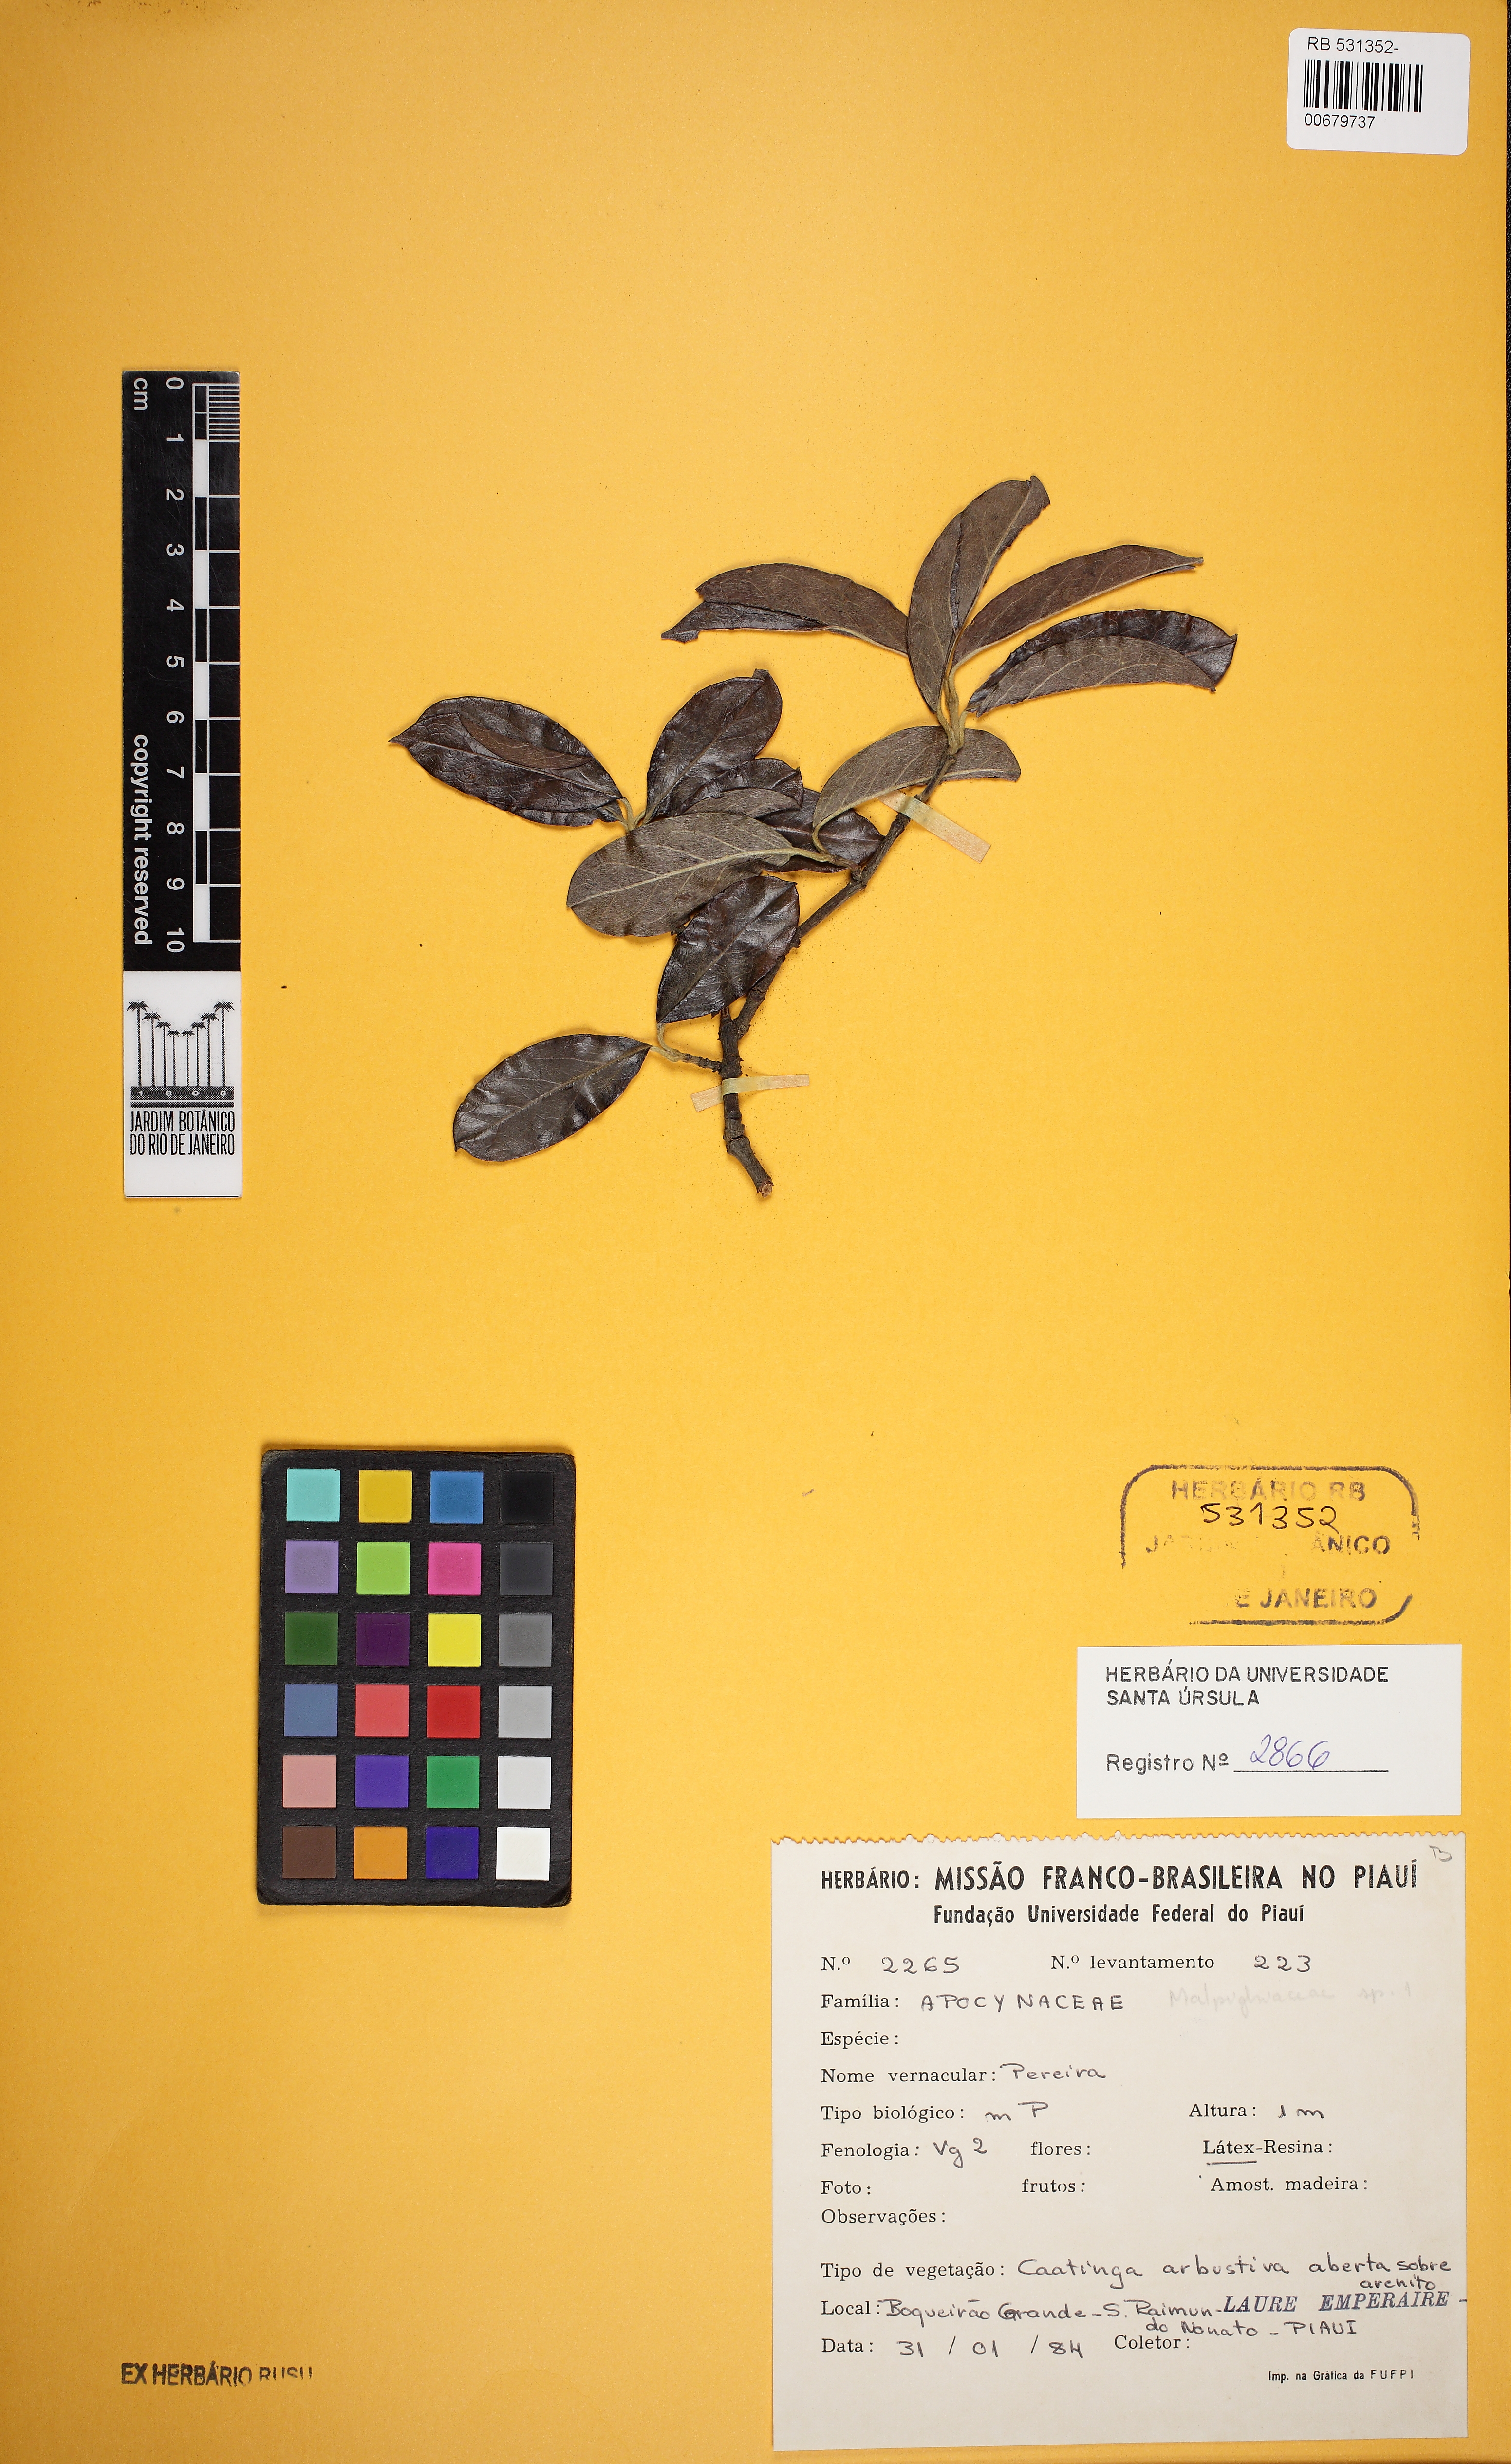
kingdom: Plantae
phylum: Tracheophyta
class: Magnoliopsida
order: Gentianales
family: Apocynaceae
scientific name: Apocynaceae
